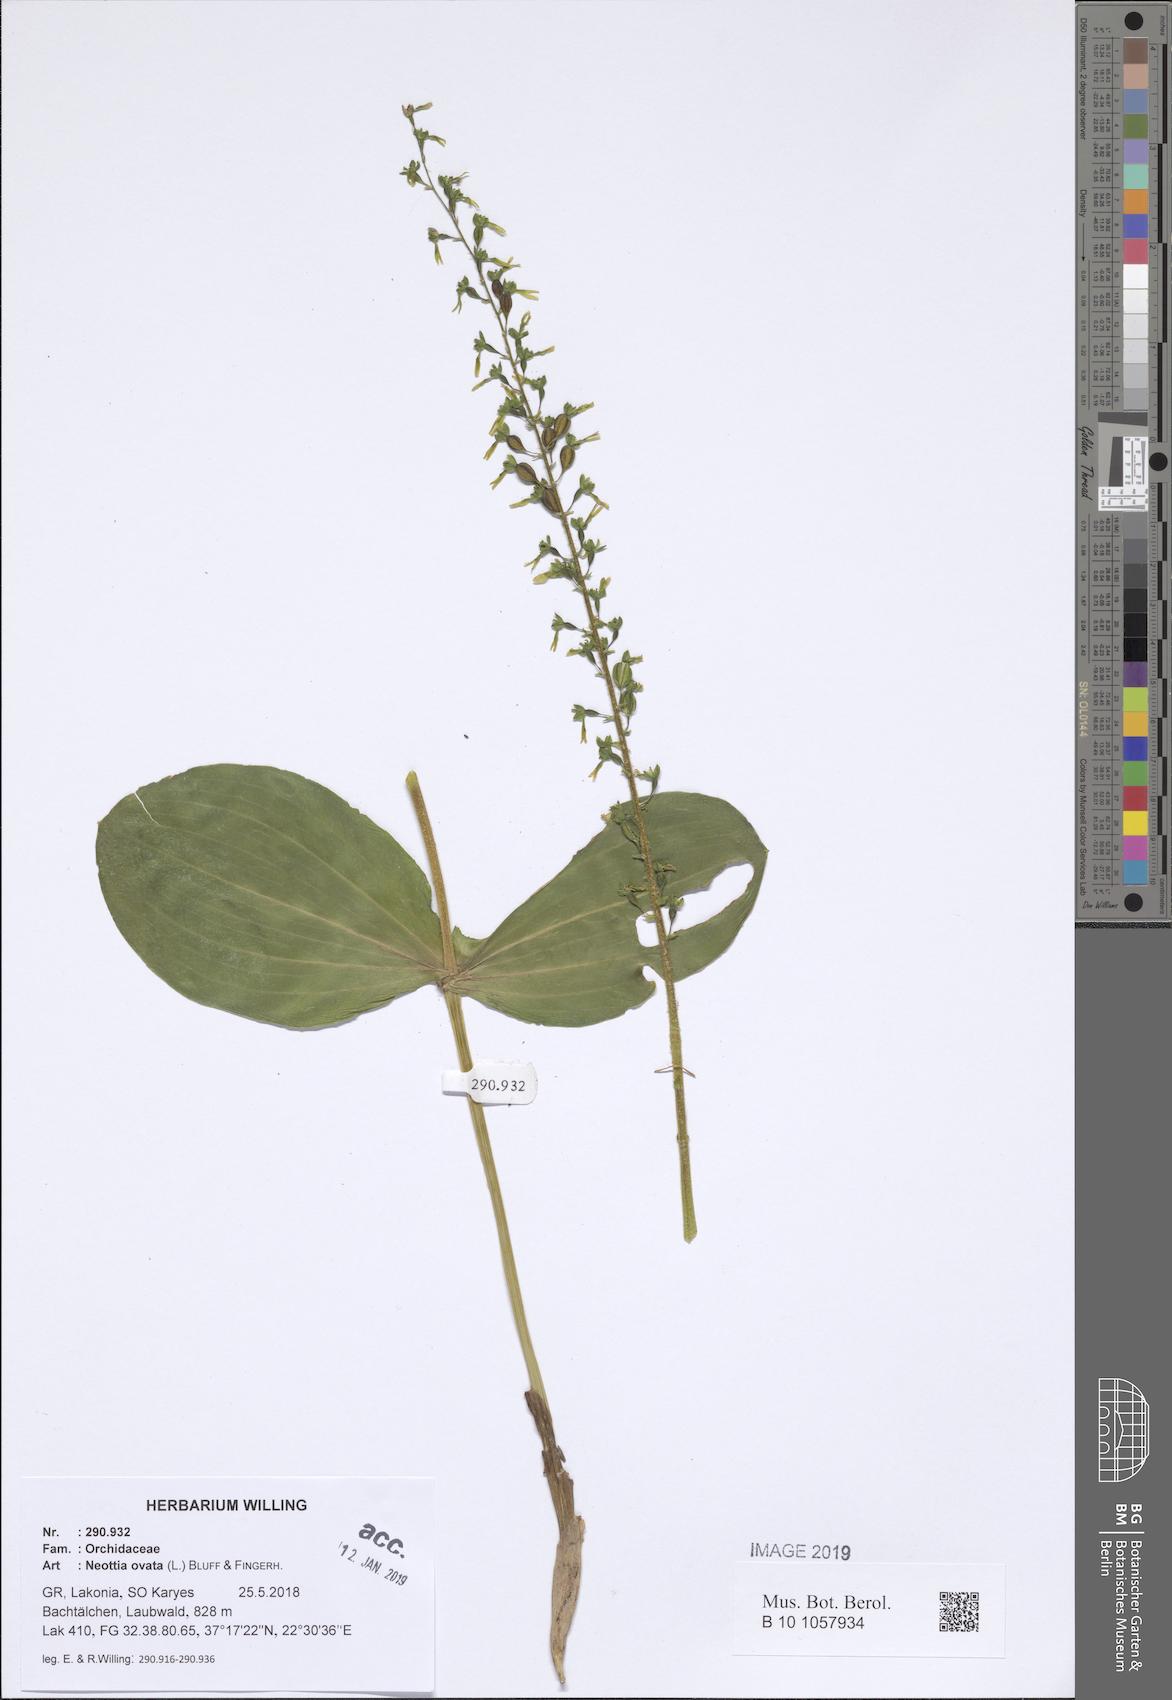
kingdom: Plantae
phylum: Tracheophyta
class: Liliopsida
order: Asparagales
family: Orchidaceae
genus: Neottia
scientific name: Neottia ovata
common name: Common twayblade
